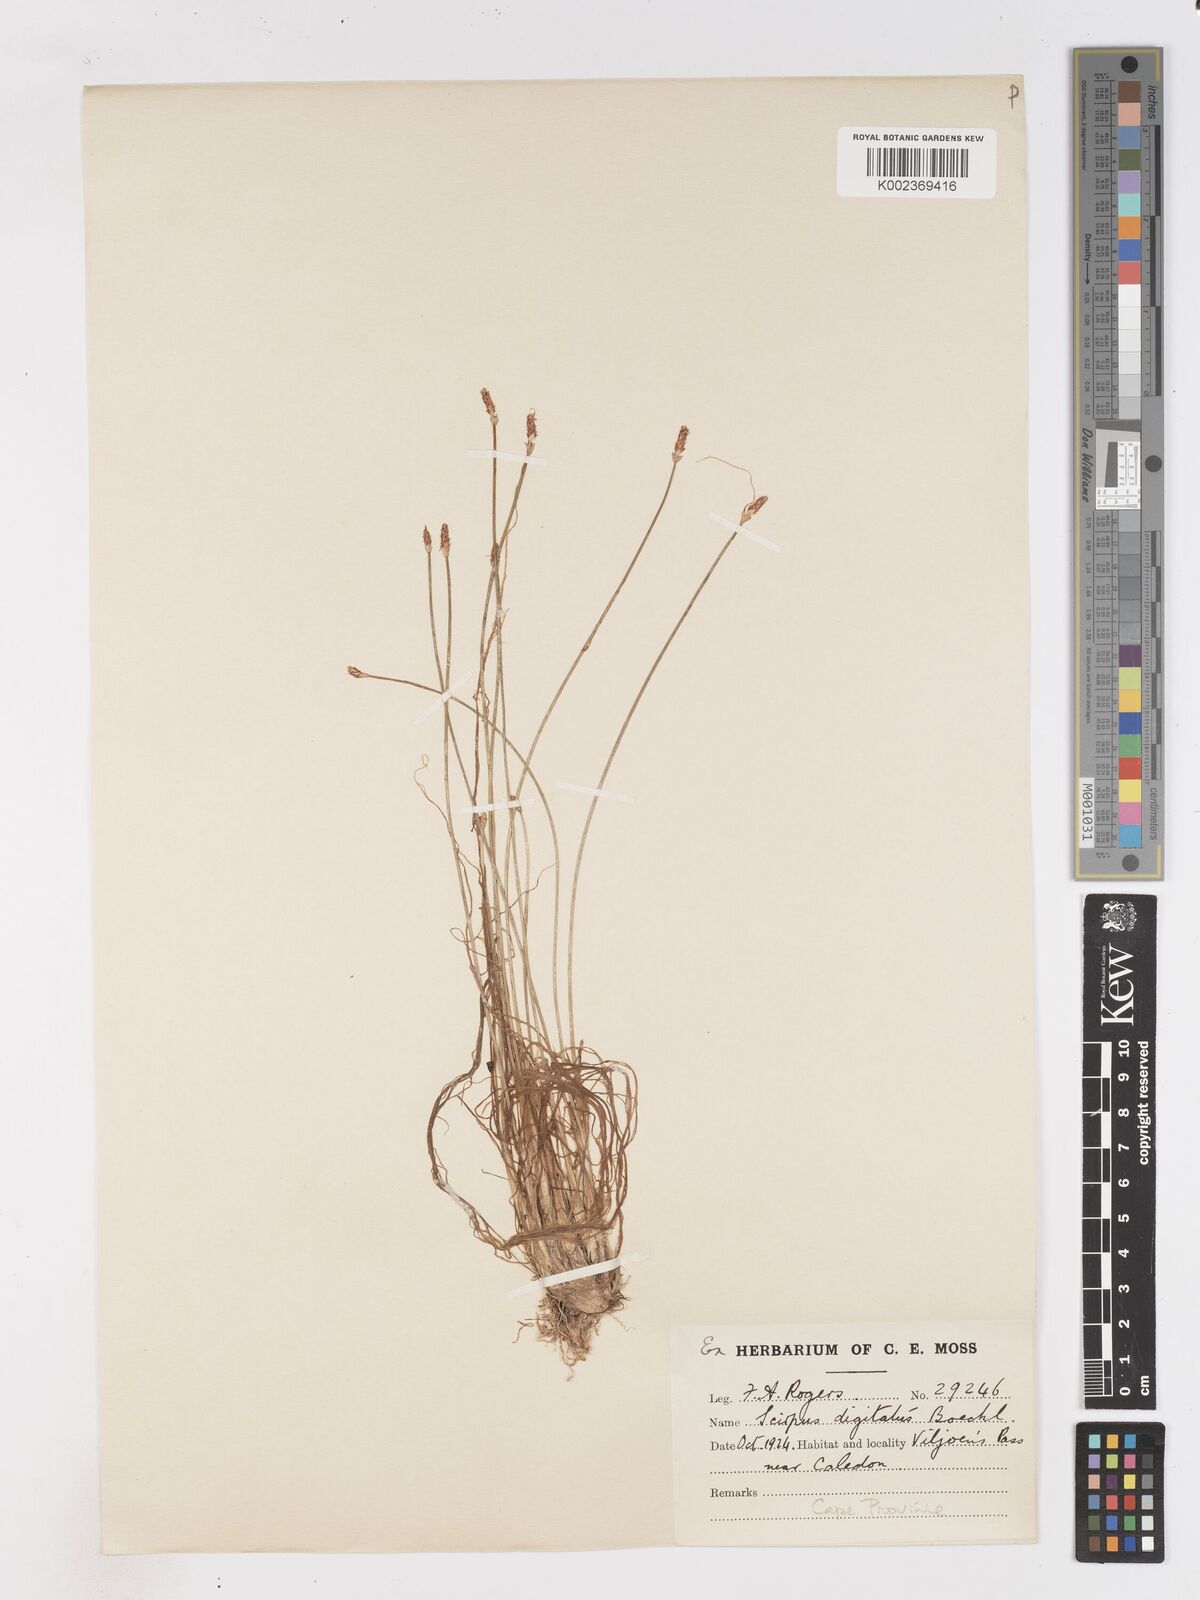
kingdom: Plantae
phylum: Tracheophyta
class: Liliopsida
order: Poales
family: Cyperaceae
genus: Isolepis
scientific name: Isolepis digitata
